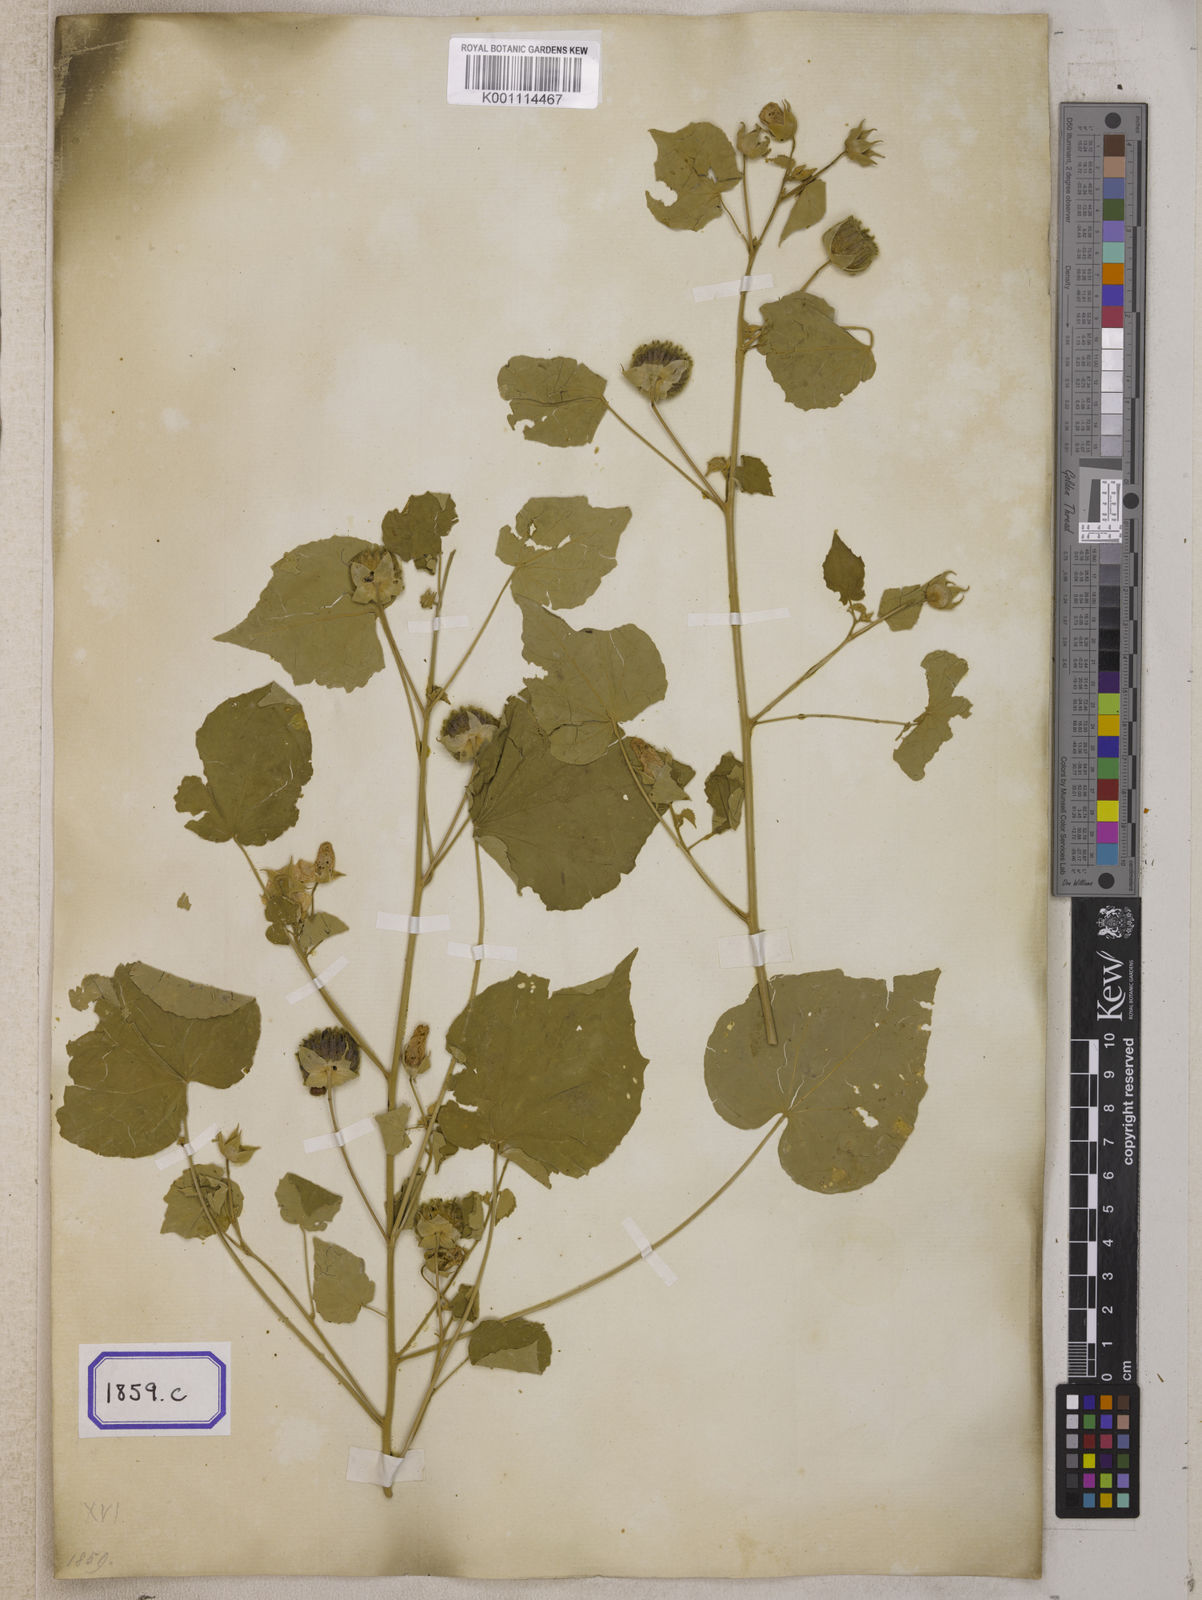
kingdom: Plantae
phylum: Tracheophyta
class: Magnoliopsida
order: Malvales
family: Malvaceae
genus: Abutilon
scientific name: Abutilon indicum
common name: Indian abutilon
